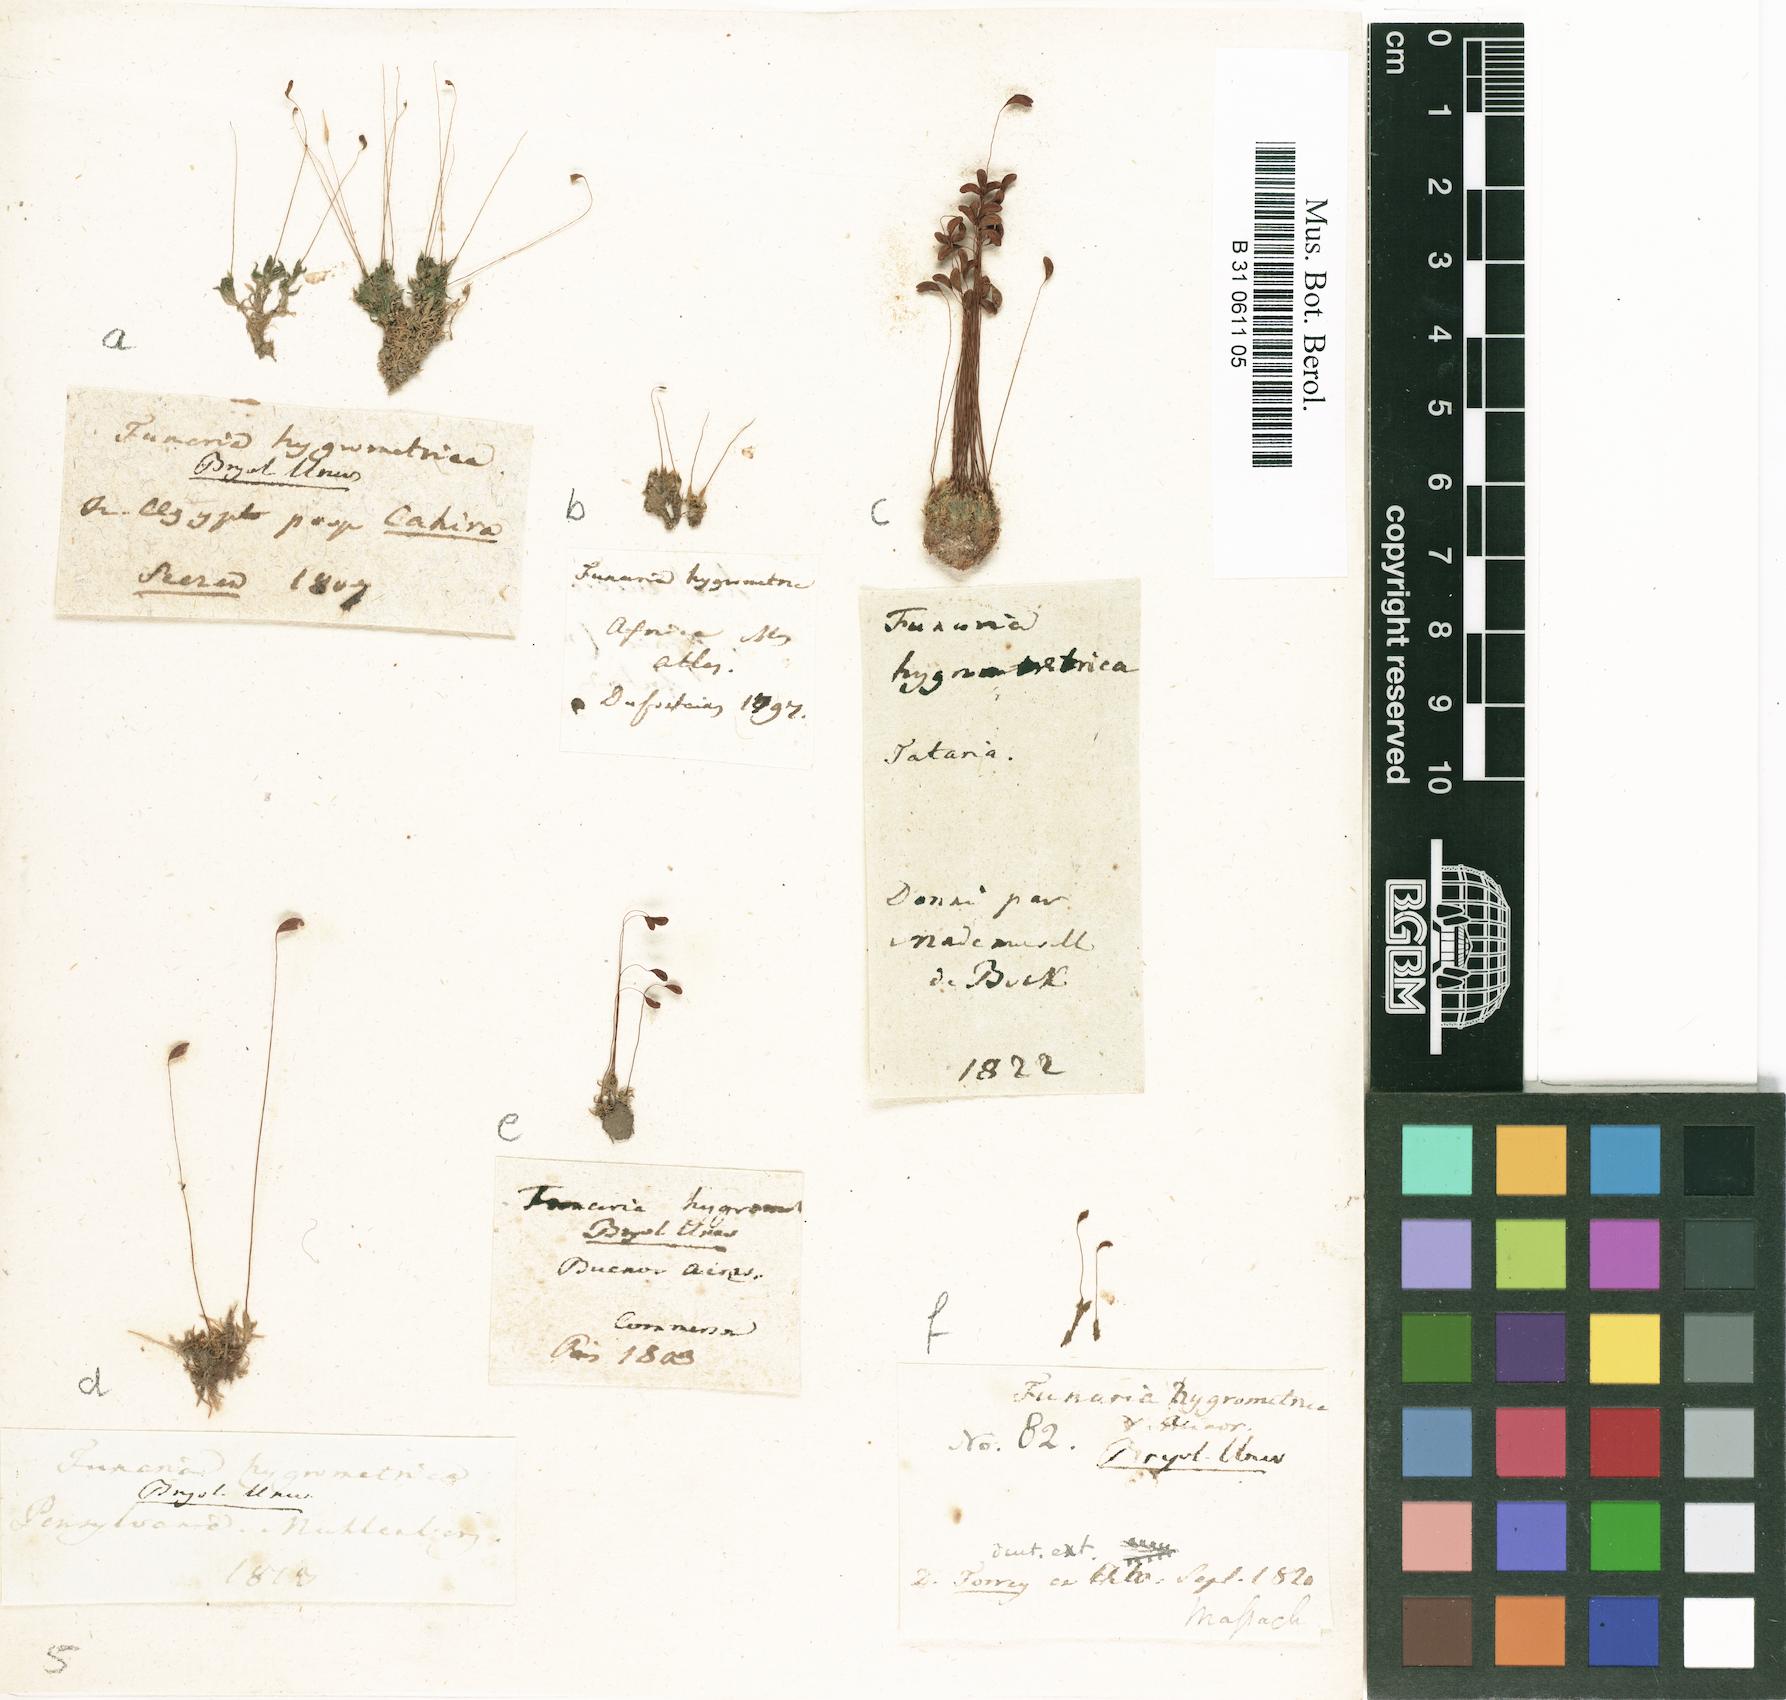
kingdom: Plantae
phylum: Bryophyta
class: Bryopsida
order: Funariales
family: Funariaceae
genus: Funaria
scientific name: Funaria hygrometrica
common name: Common cord moss
